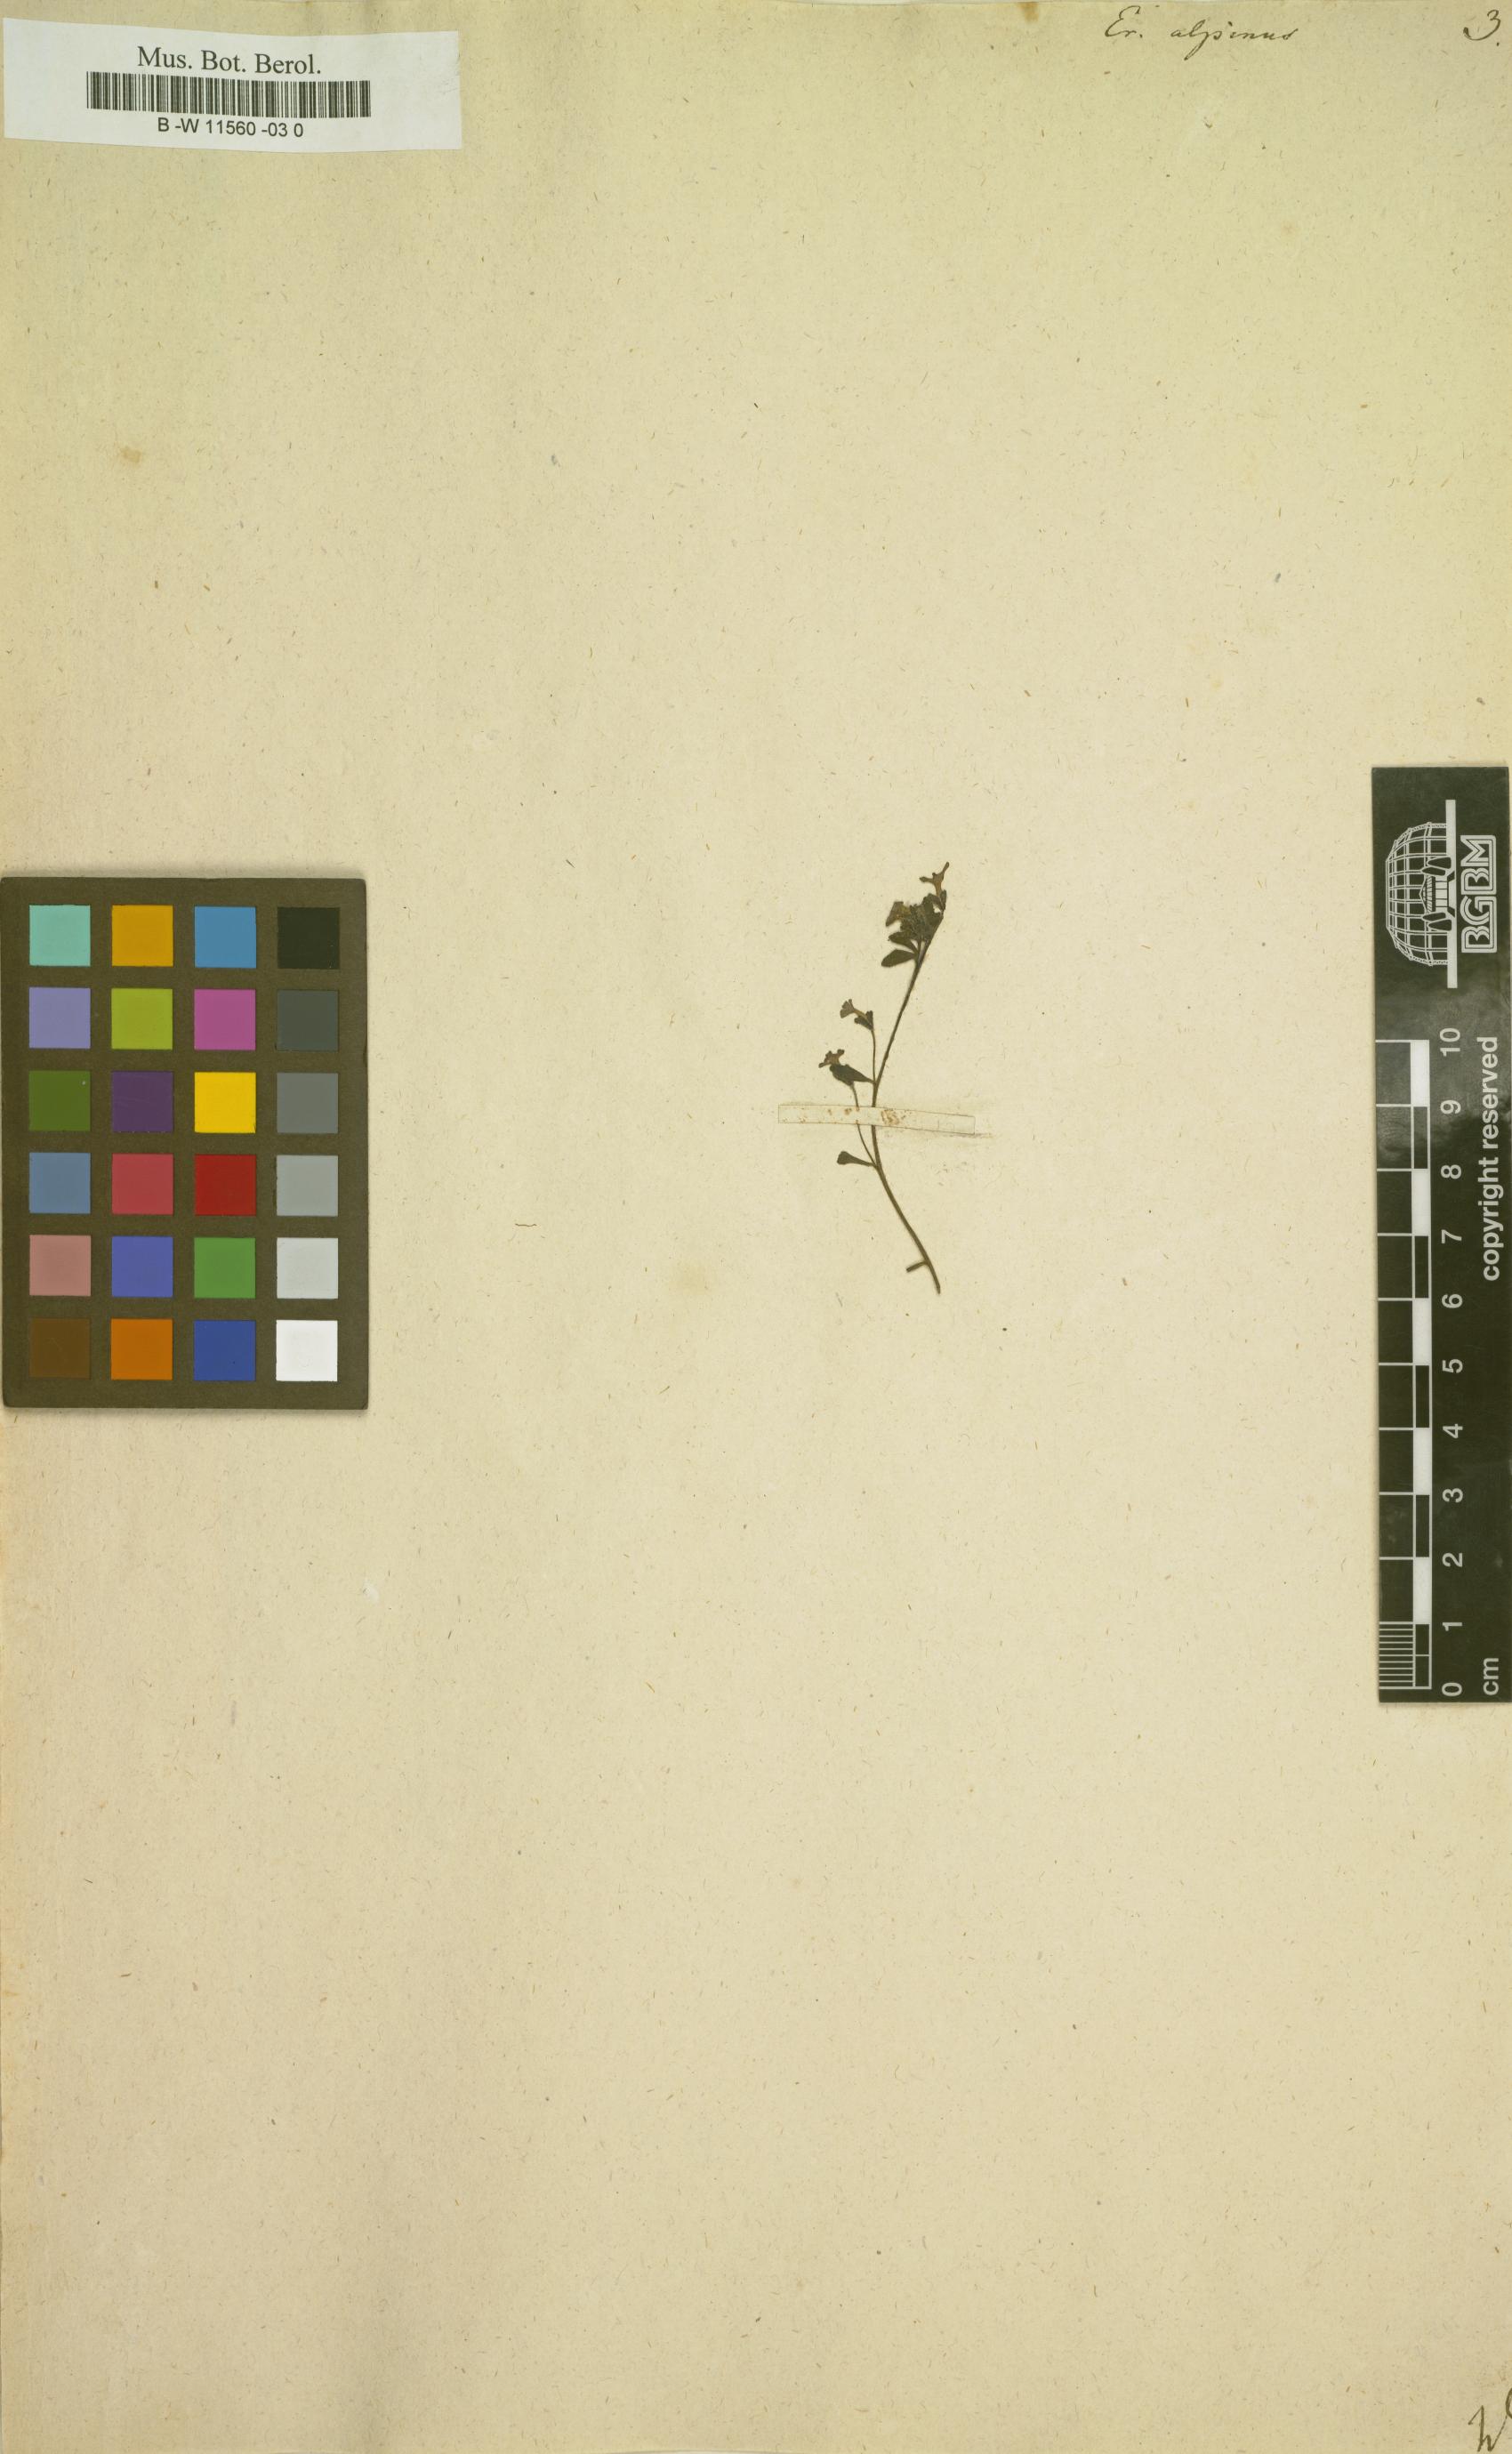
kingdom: Plantae
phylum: Tracheophyta
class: Magnoliopsida
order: Lamiales
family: Plantaginaceae
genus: Erinus
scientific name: Erinus alpinus
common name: Fairy foxglove
